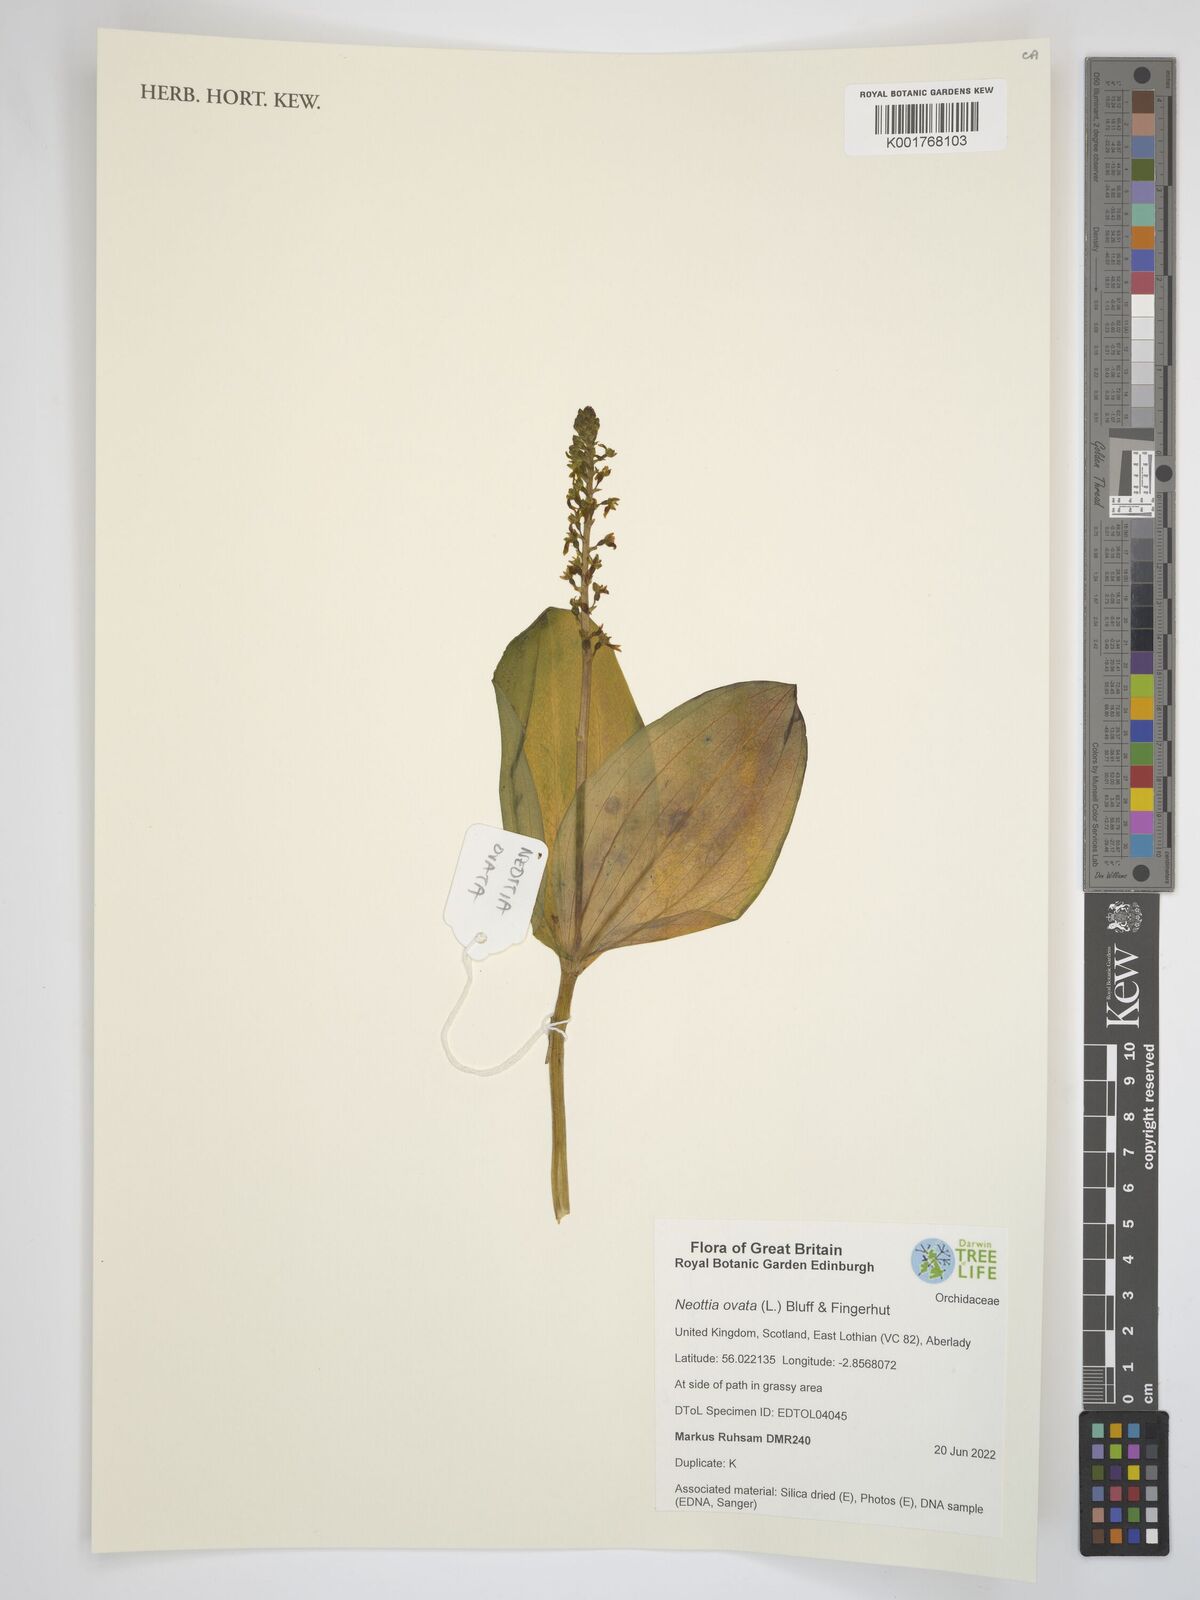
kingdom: Plantae
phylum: Tracheophyta
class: Liliopsida
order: Asparagales
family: Orchidaceae
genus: Neottia
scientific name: Neottia ovata
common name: Common twayblade
